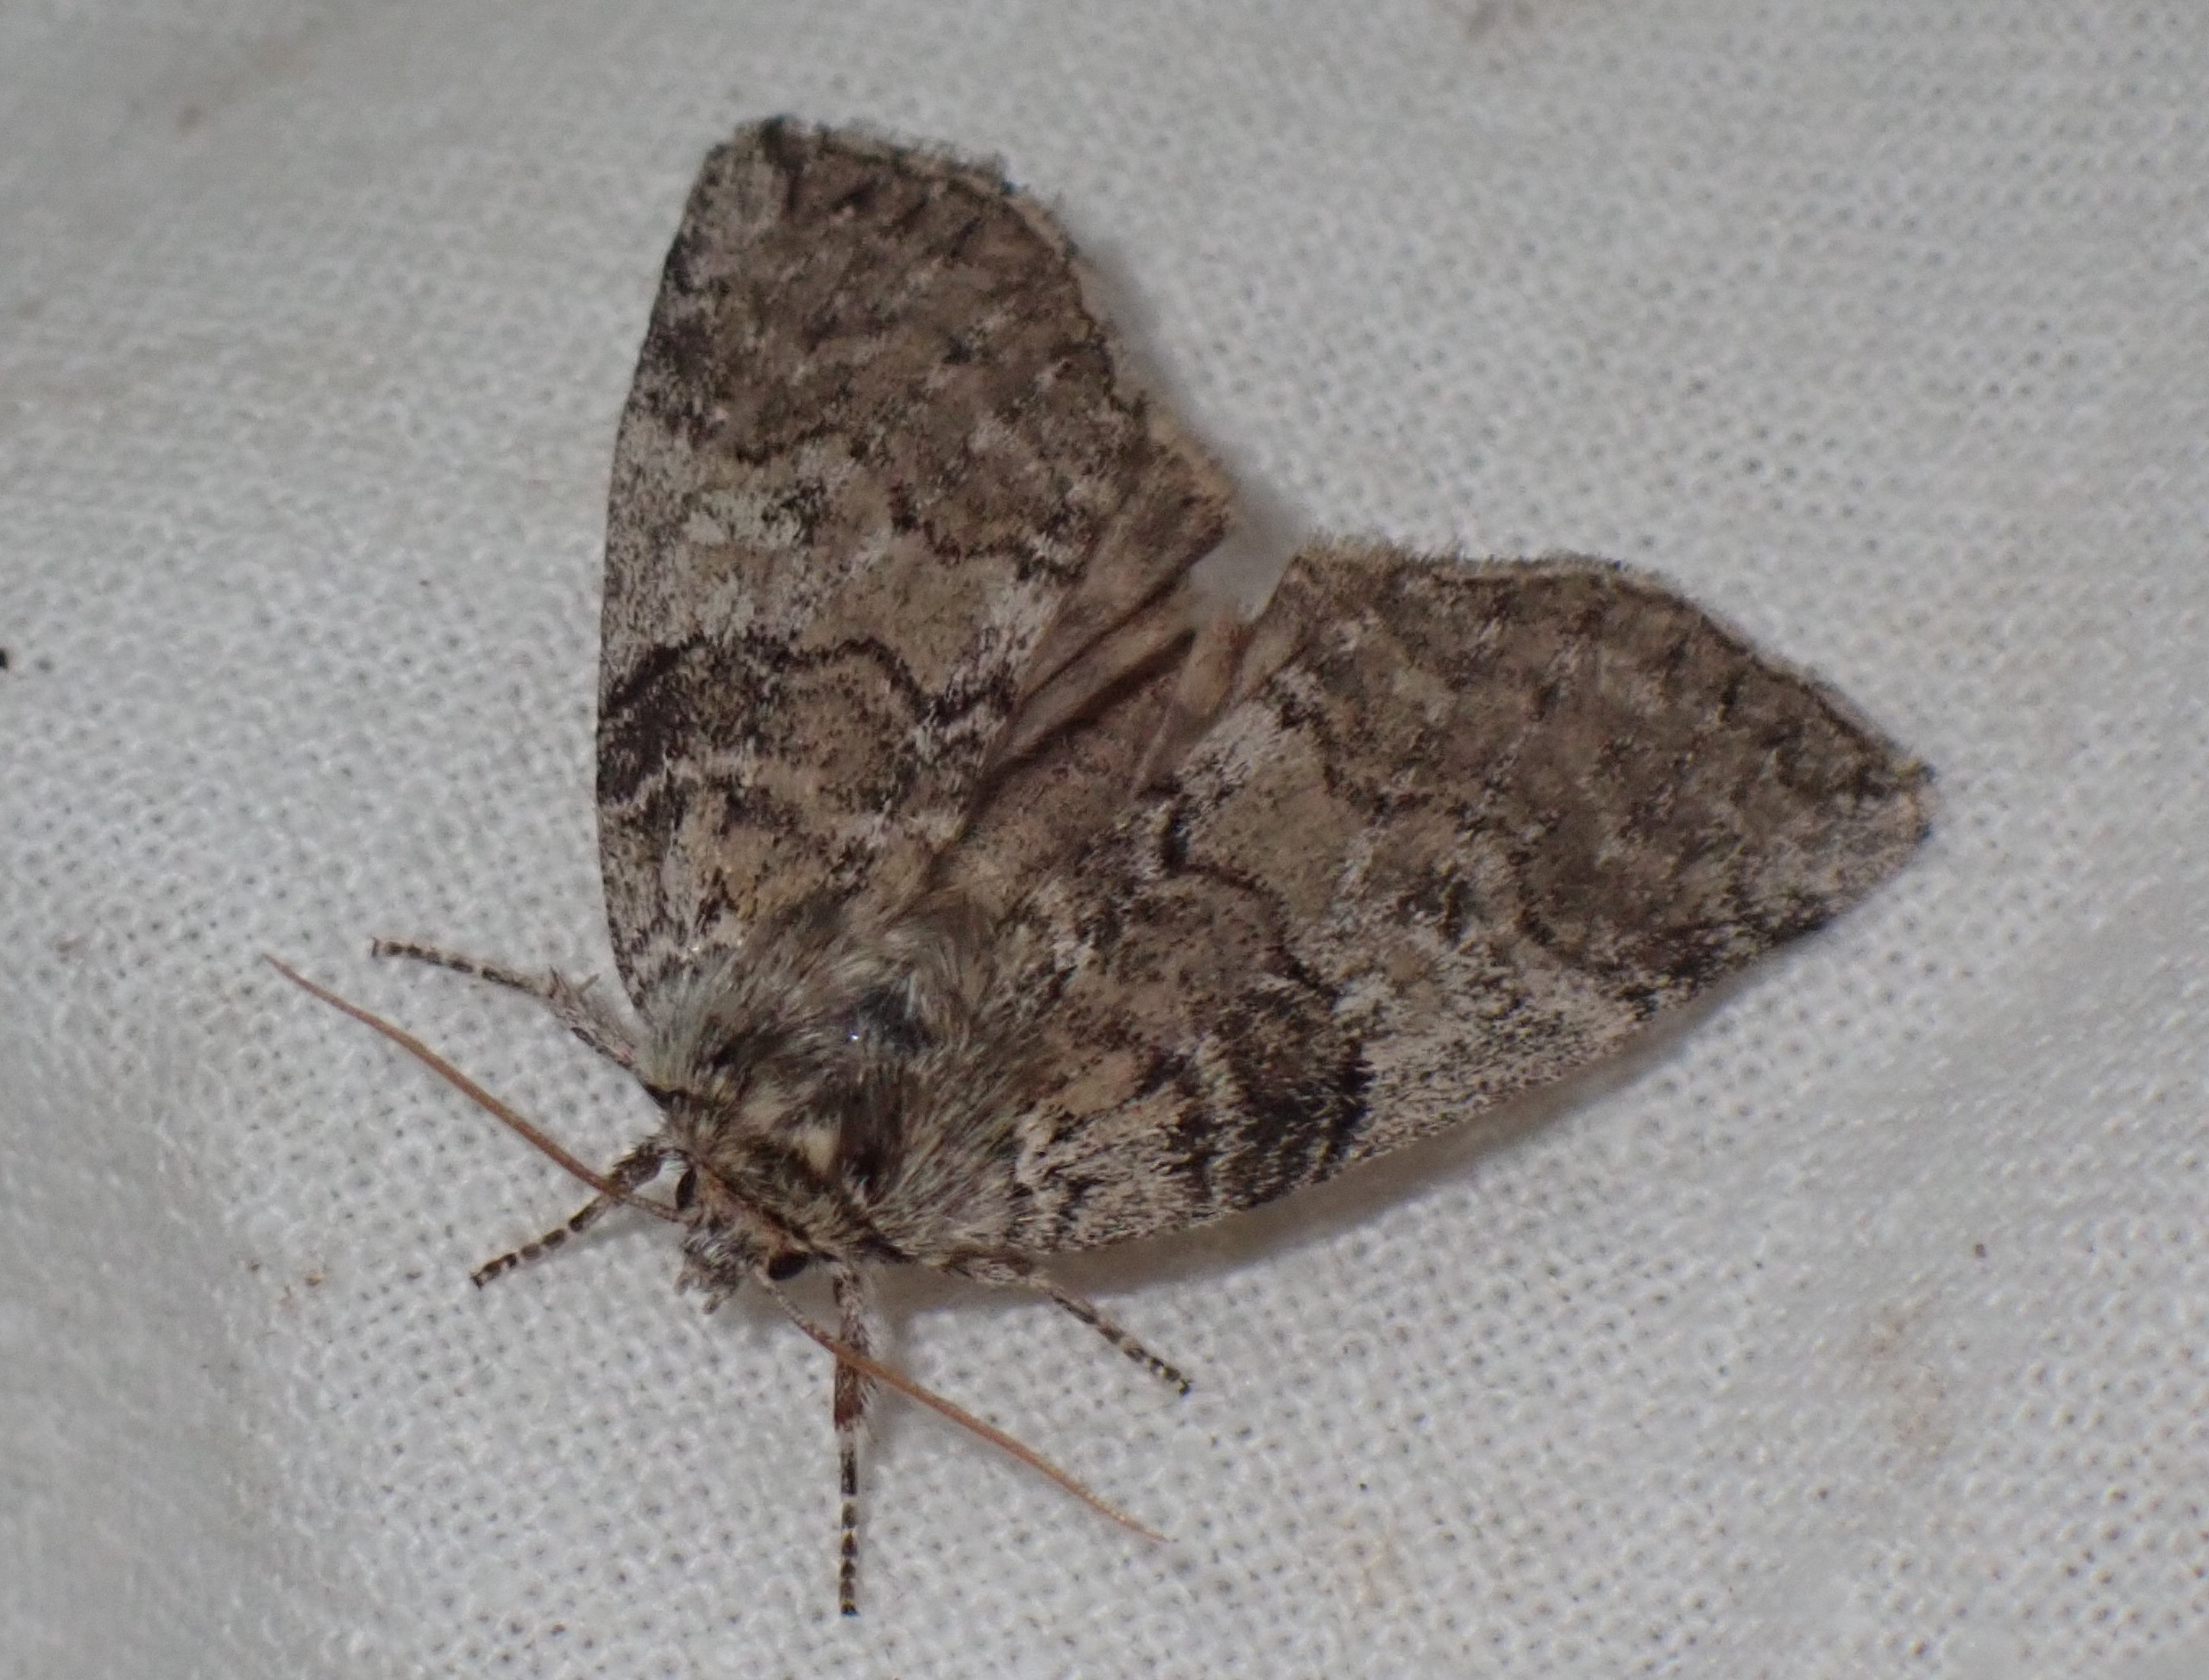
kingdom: Animalia
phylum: Arthropoda
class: Insecta
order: Lepidoptera
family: Drepanidae
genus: Tethea
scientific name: Tethea or
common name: Bogstav-uglespinder
